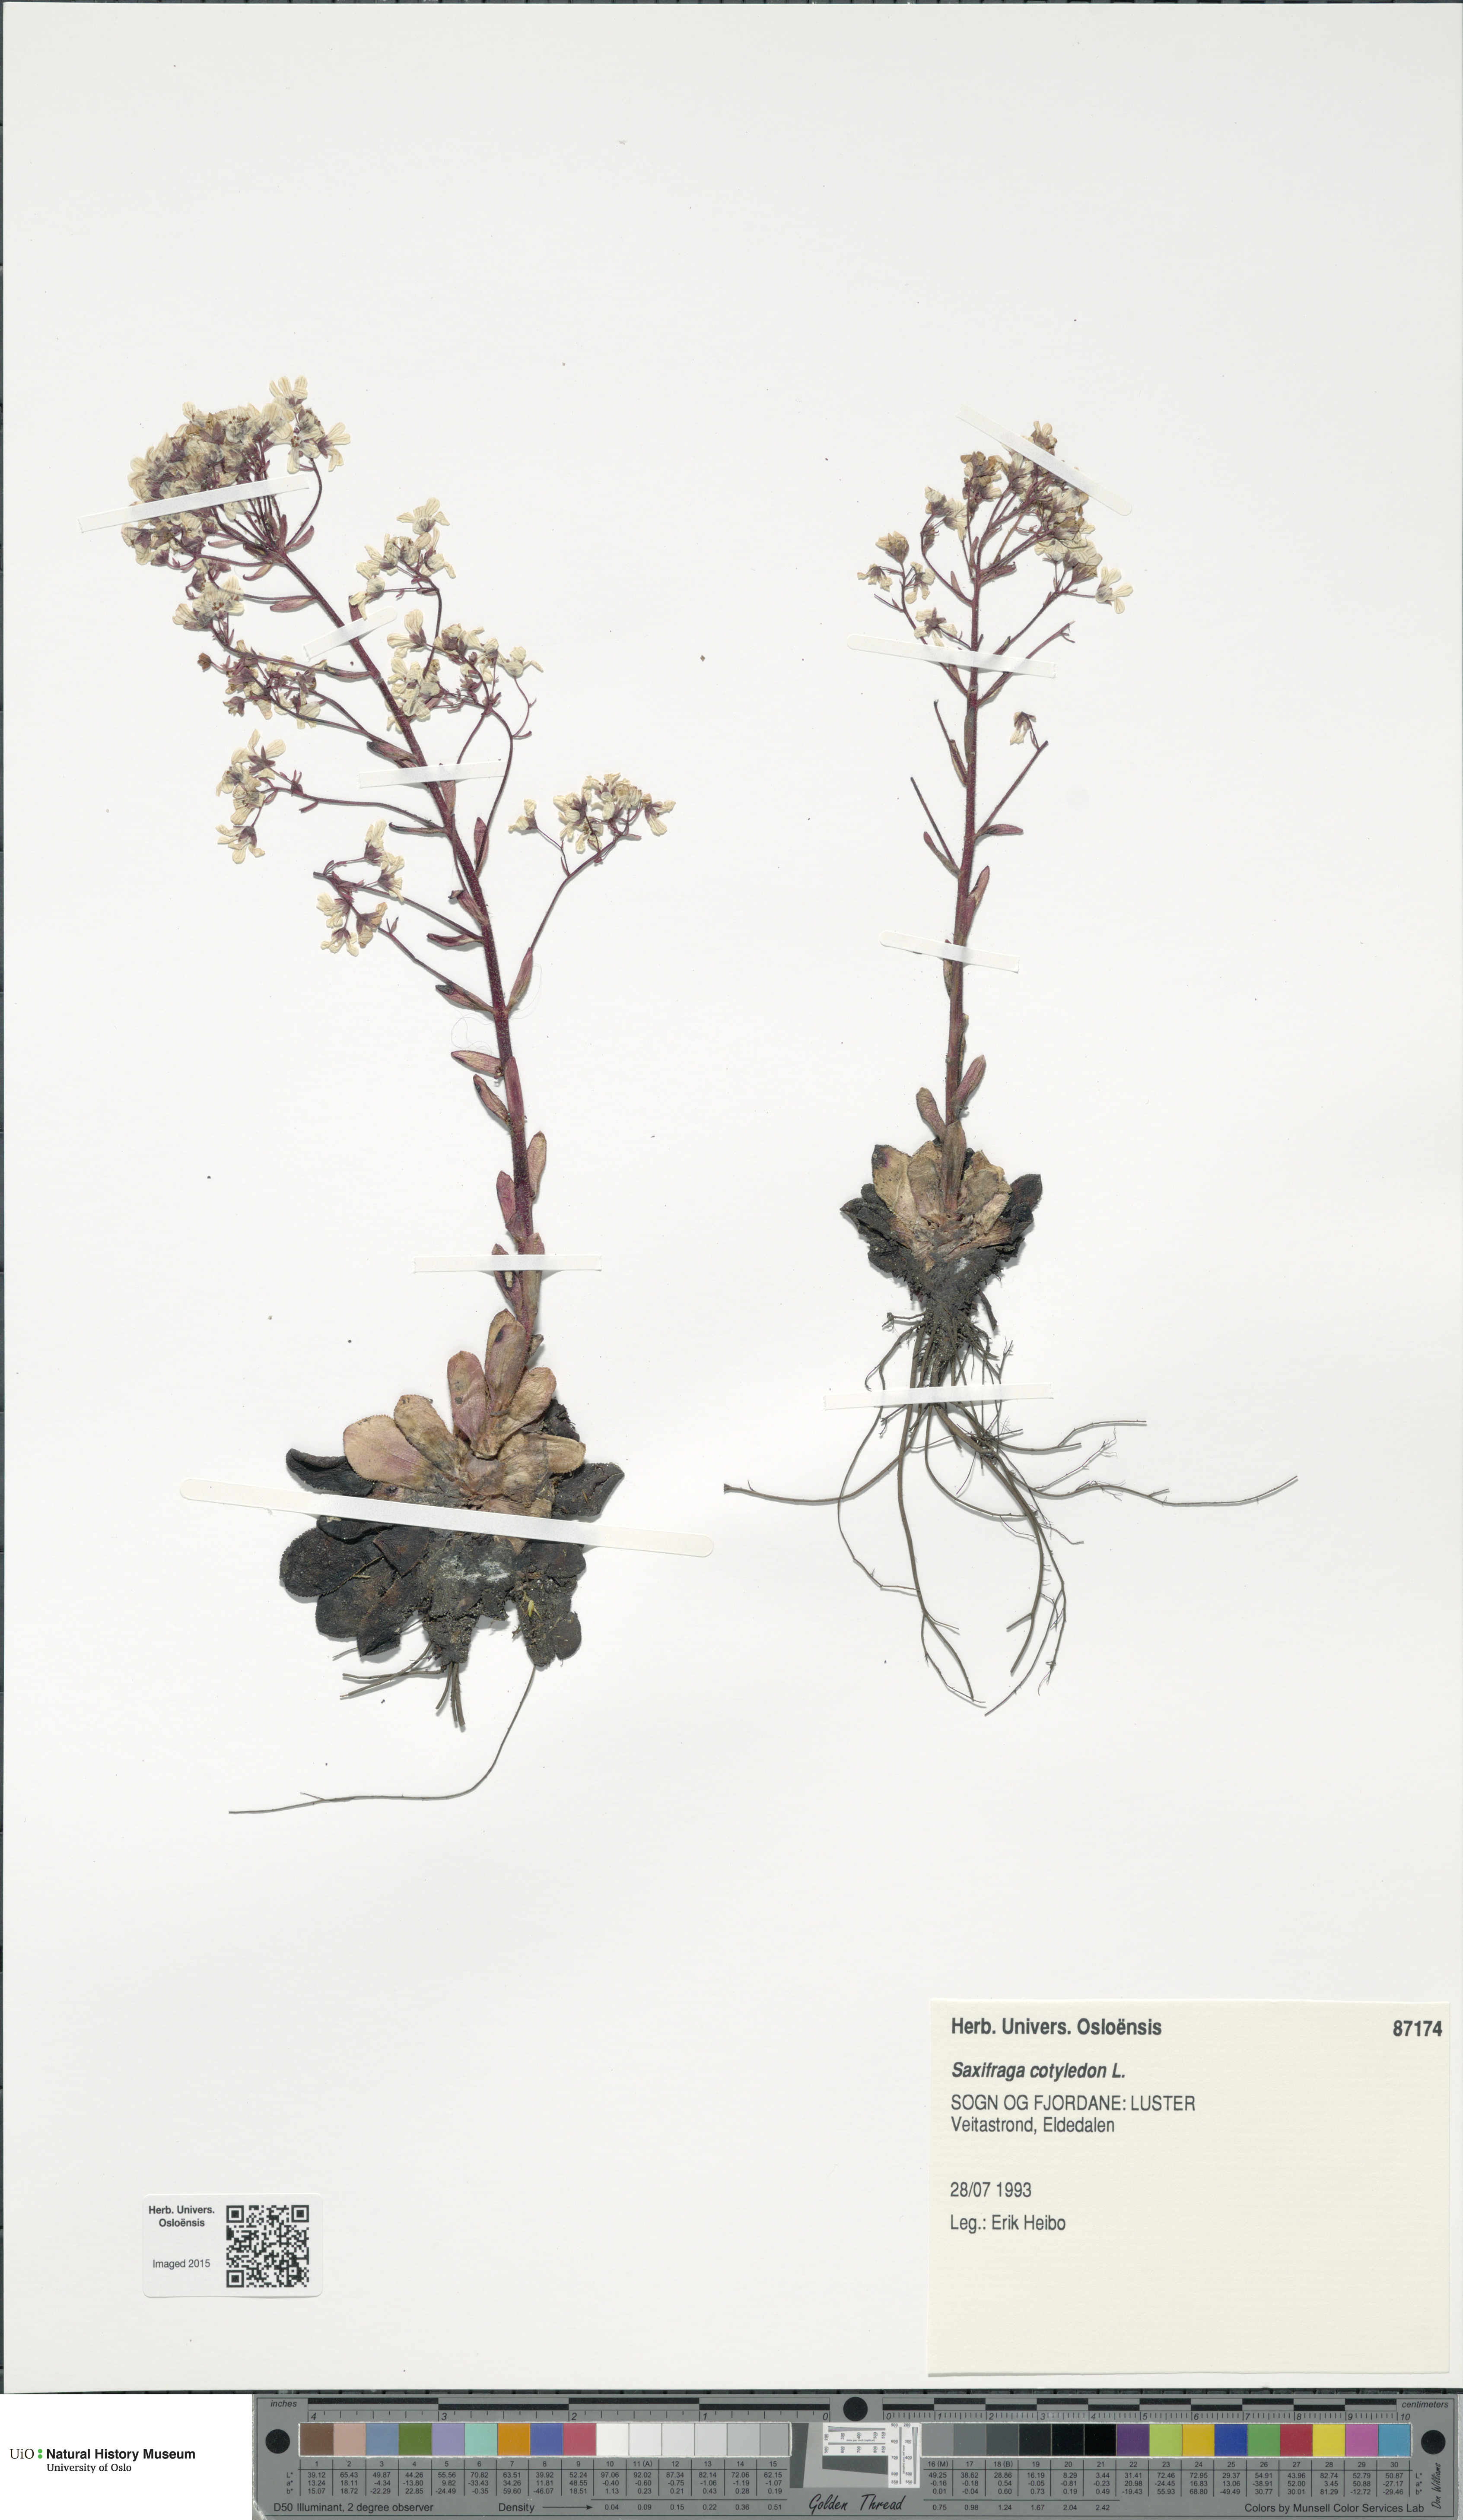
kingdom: Plantae
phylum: Tracheophyta
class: Magnoliopsida
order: Saxifragales
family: Saxifragaceae
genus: Saxifraga
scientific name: Saxifraga cotyledon
